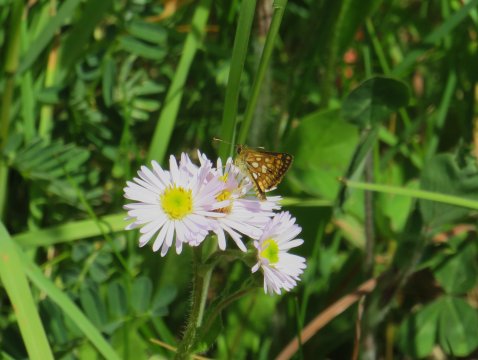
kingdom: Animalia
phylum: Arthropoda
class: Insecta
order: Lepidoptera
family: Hesperiidae
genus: Carterocephalus
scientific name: Carterocephalus palaemon
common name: Chequered Skipper
